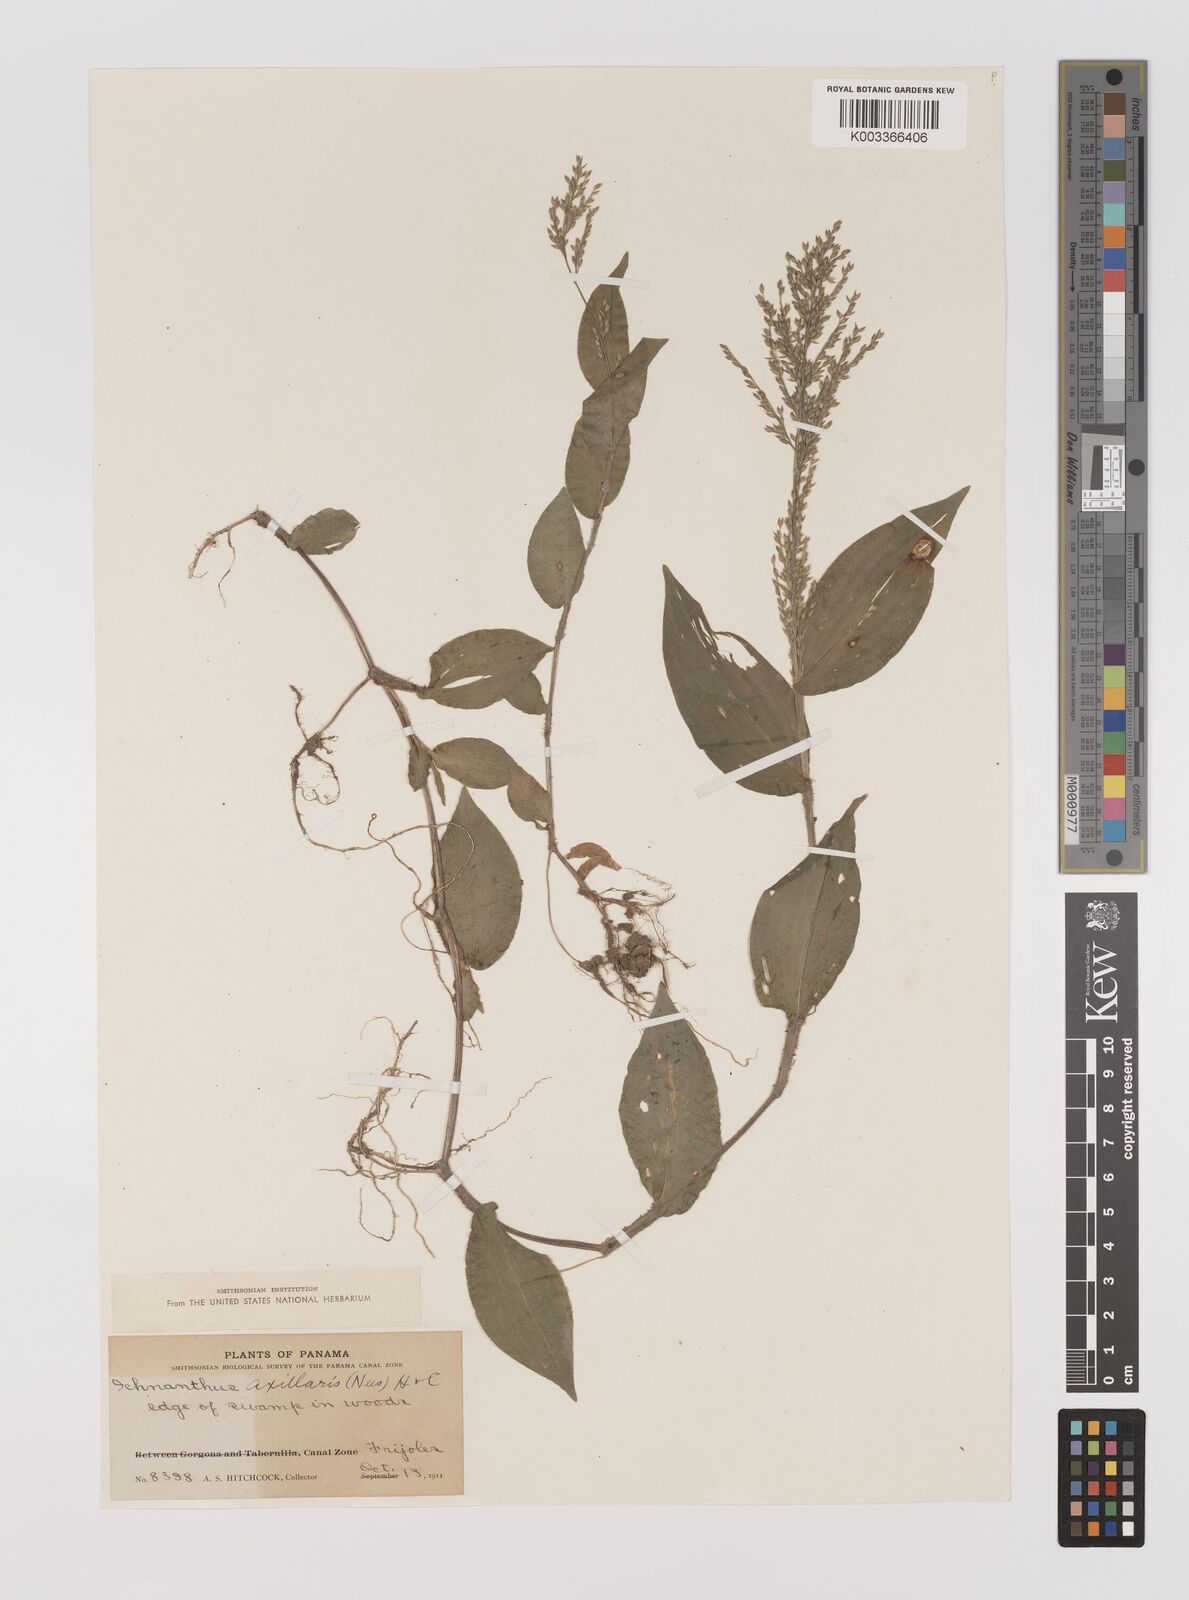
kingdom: Plantae
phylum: Tracheophyta
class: Liliopsida
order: Poales
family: Poaceae
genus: Ichnanthus
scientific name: Ichnanthus pallens
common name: Water grass
